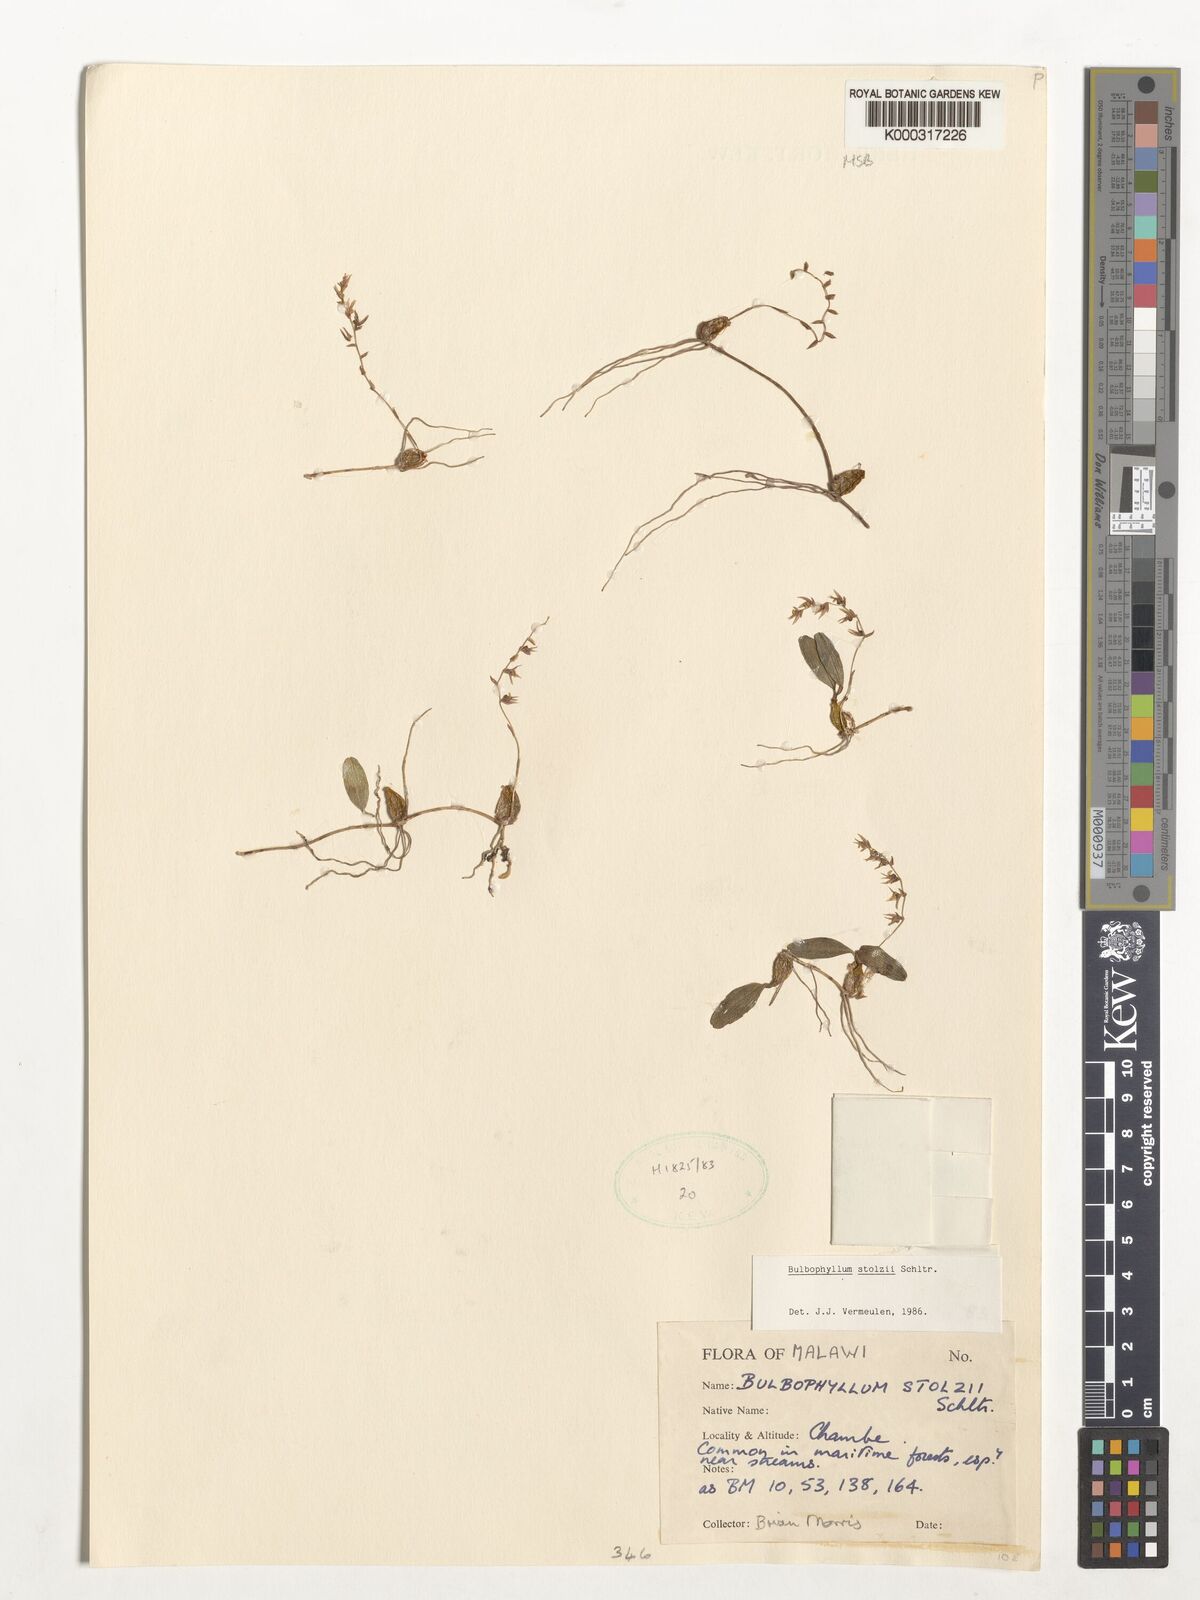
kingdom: Plantae
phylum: Tracheophyta
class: Liliopsida
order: Asparagales
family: Orchidaceae
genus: Bulbophyllum
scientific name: Bulbophyllum stolzii
